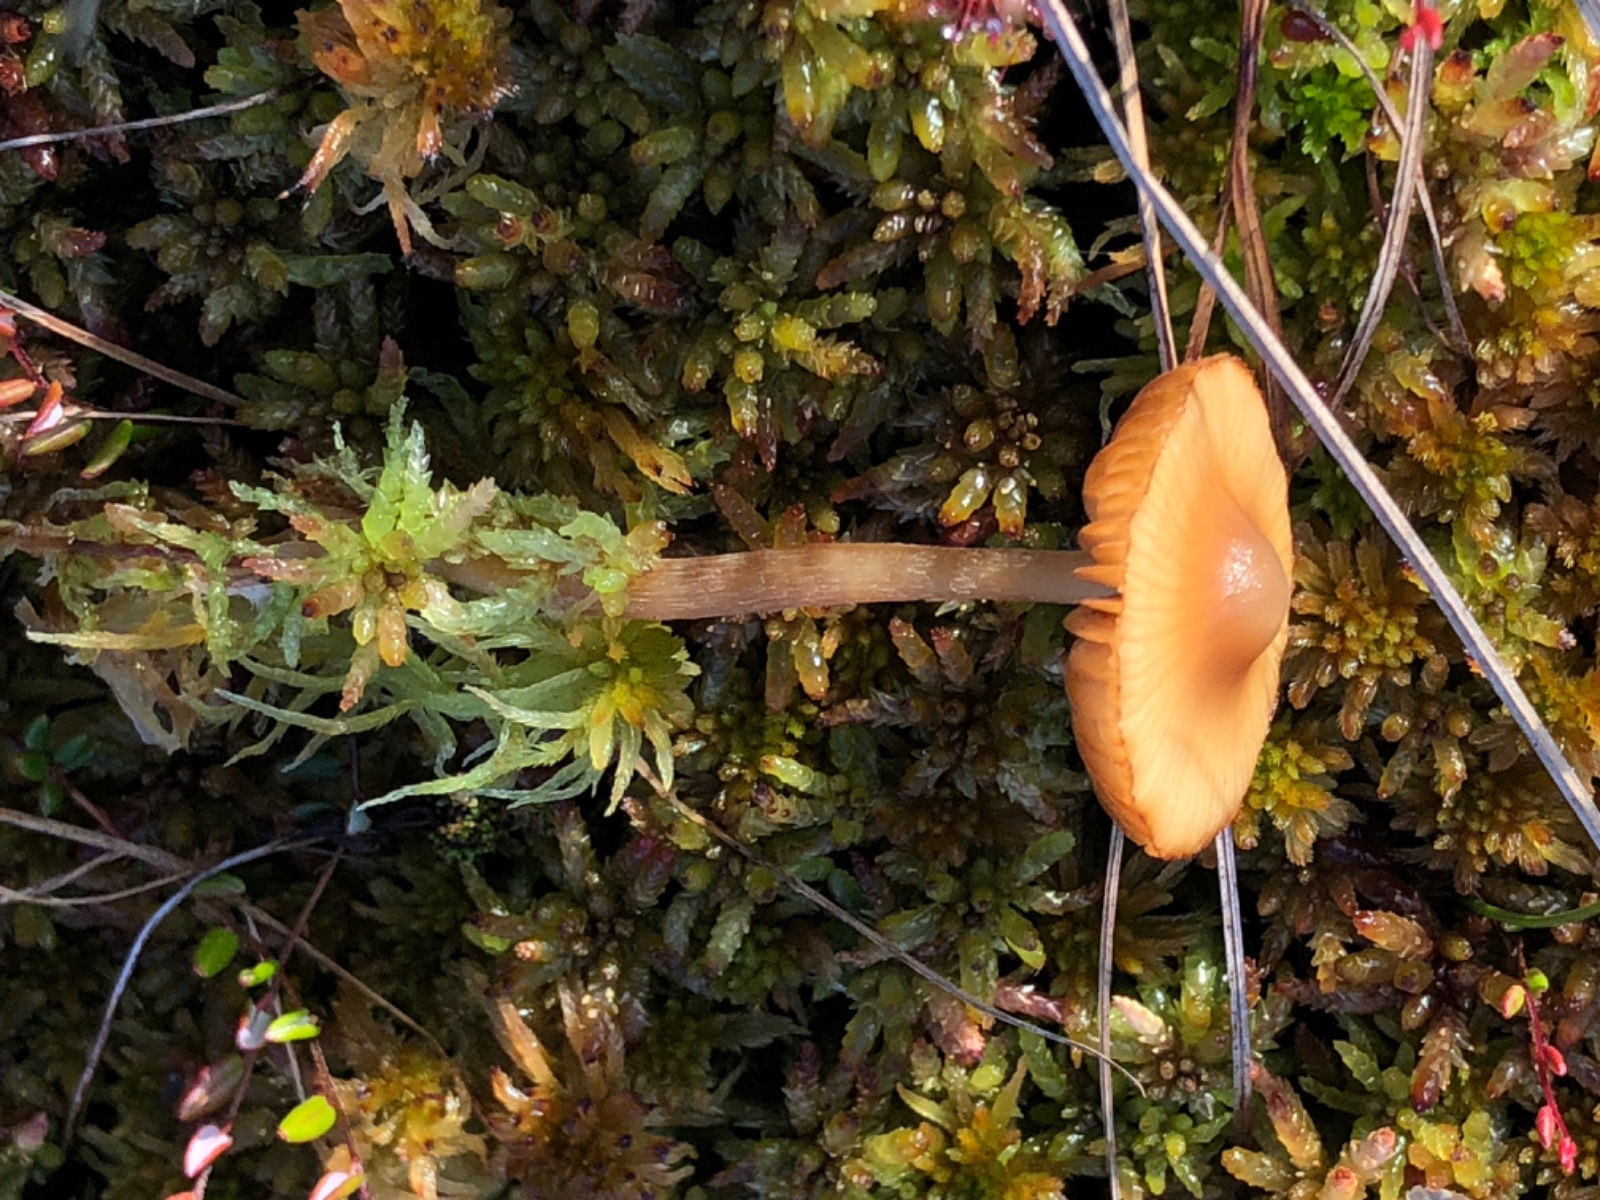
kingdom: Fungi
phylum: Basidiomycota
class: Agaricomycetes
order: Agaricales
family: Hymenogastraceae
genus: Galerina
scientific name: Galerina hybrida
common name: hængesæk-hjelmhat
